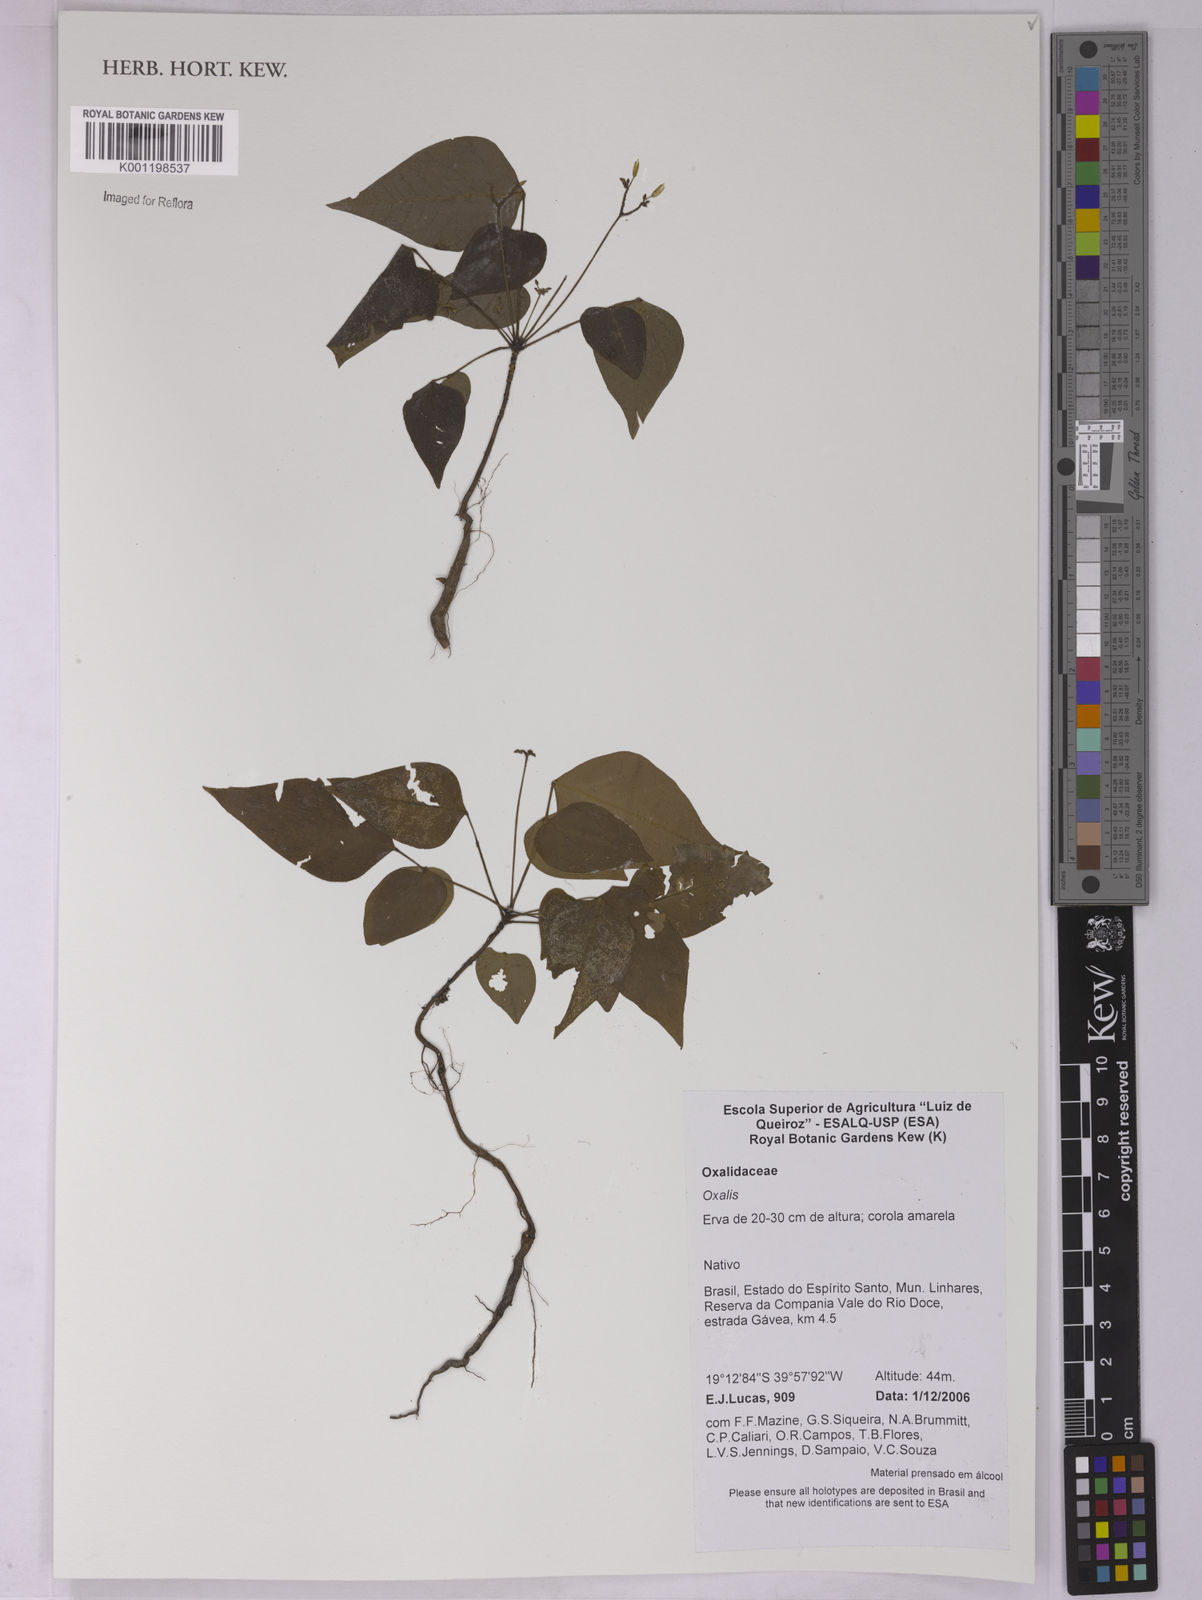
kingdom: Plantae
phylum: Tracheophyta
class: Magnoliopsida
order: Oxalidales
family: Oxalidaceae
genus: Oxalis
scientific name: Oxalis
